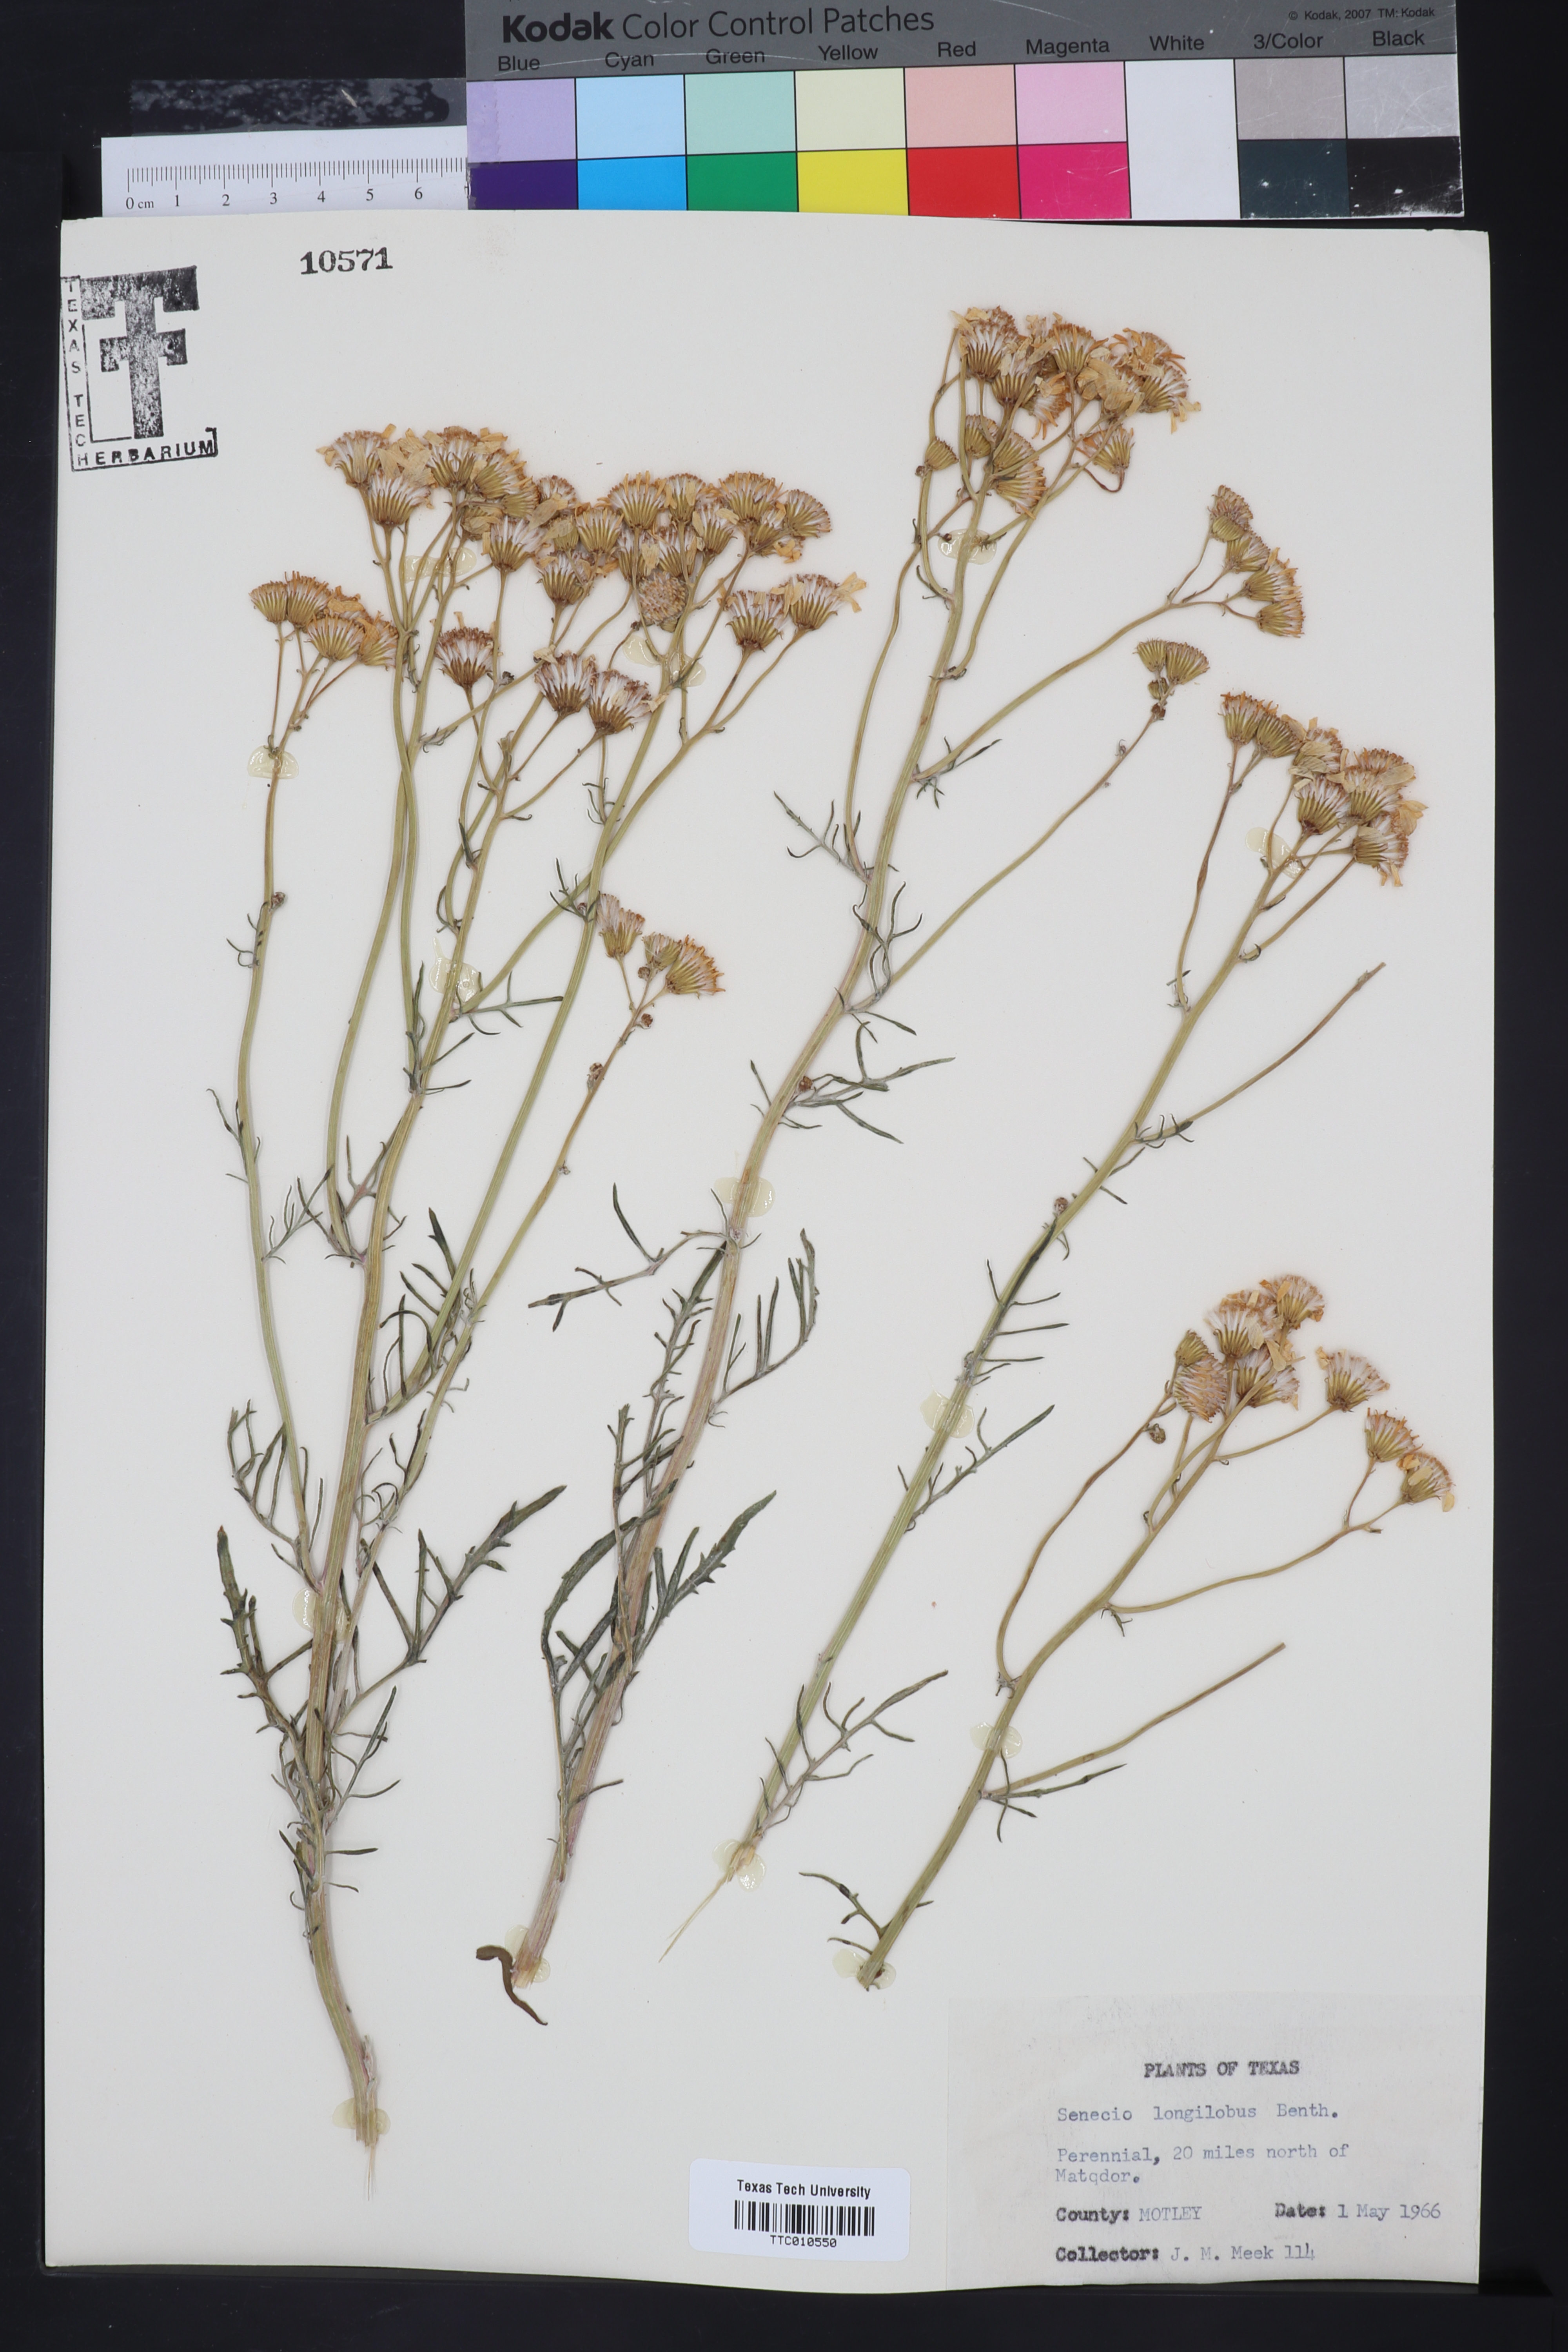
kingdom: Plantae
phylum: Tracheophyta
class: Magnoliopsida
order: Asterales
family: Asteraceae
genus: Senecio
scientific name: Senecio flaccidus
